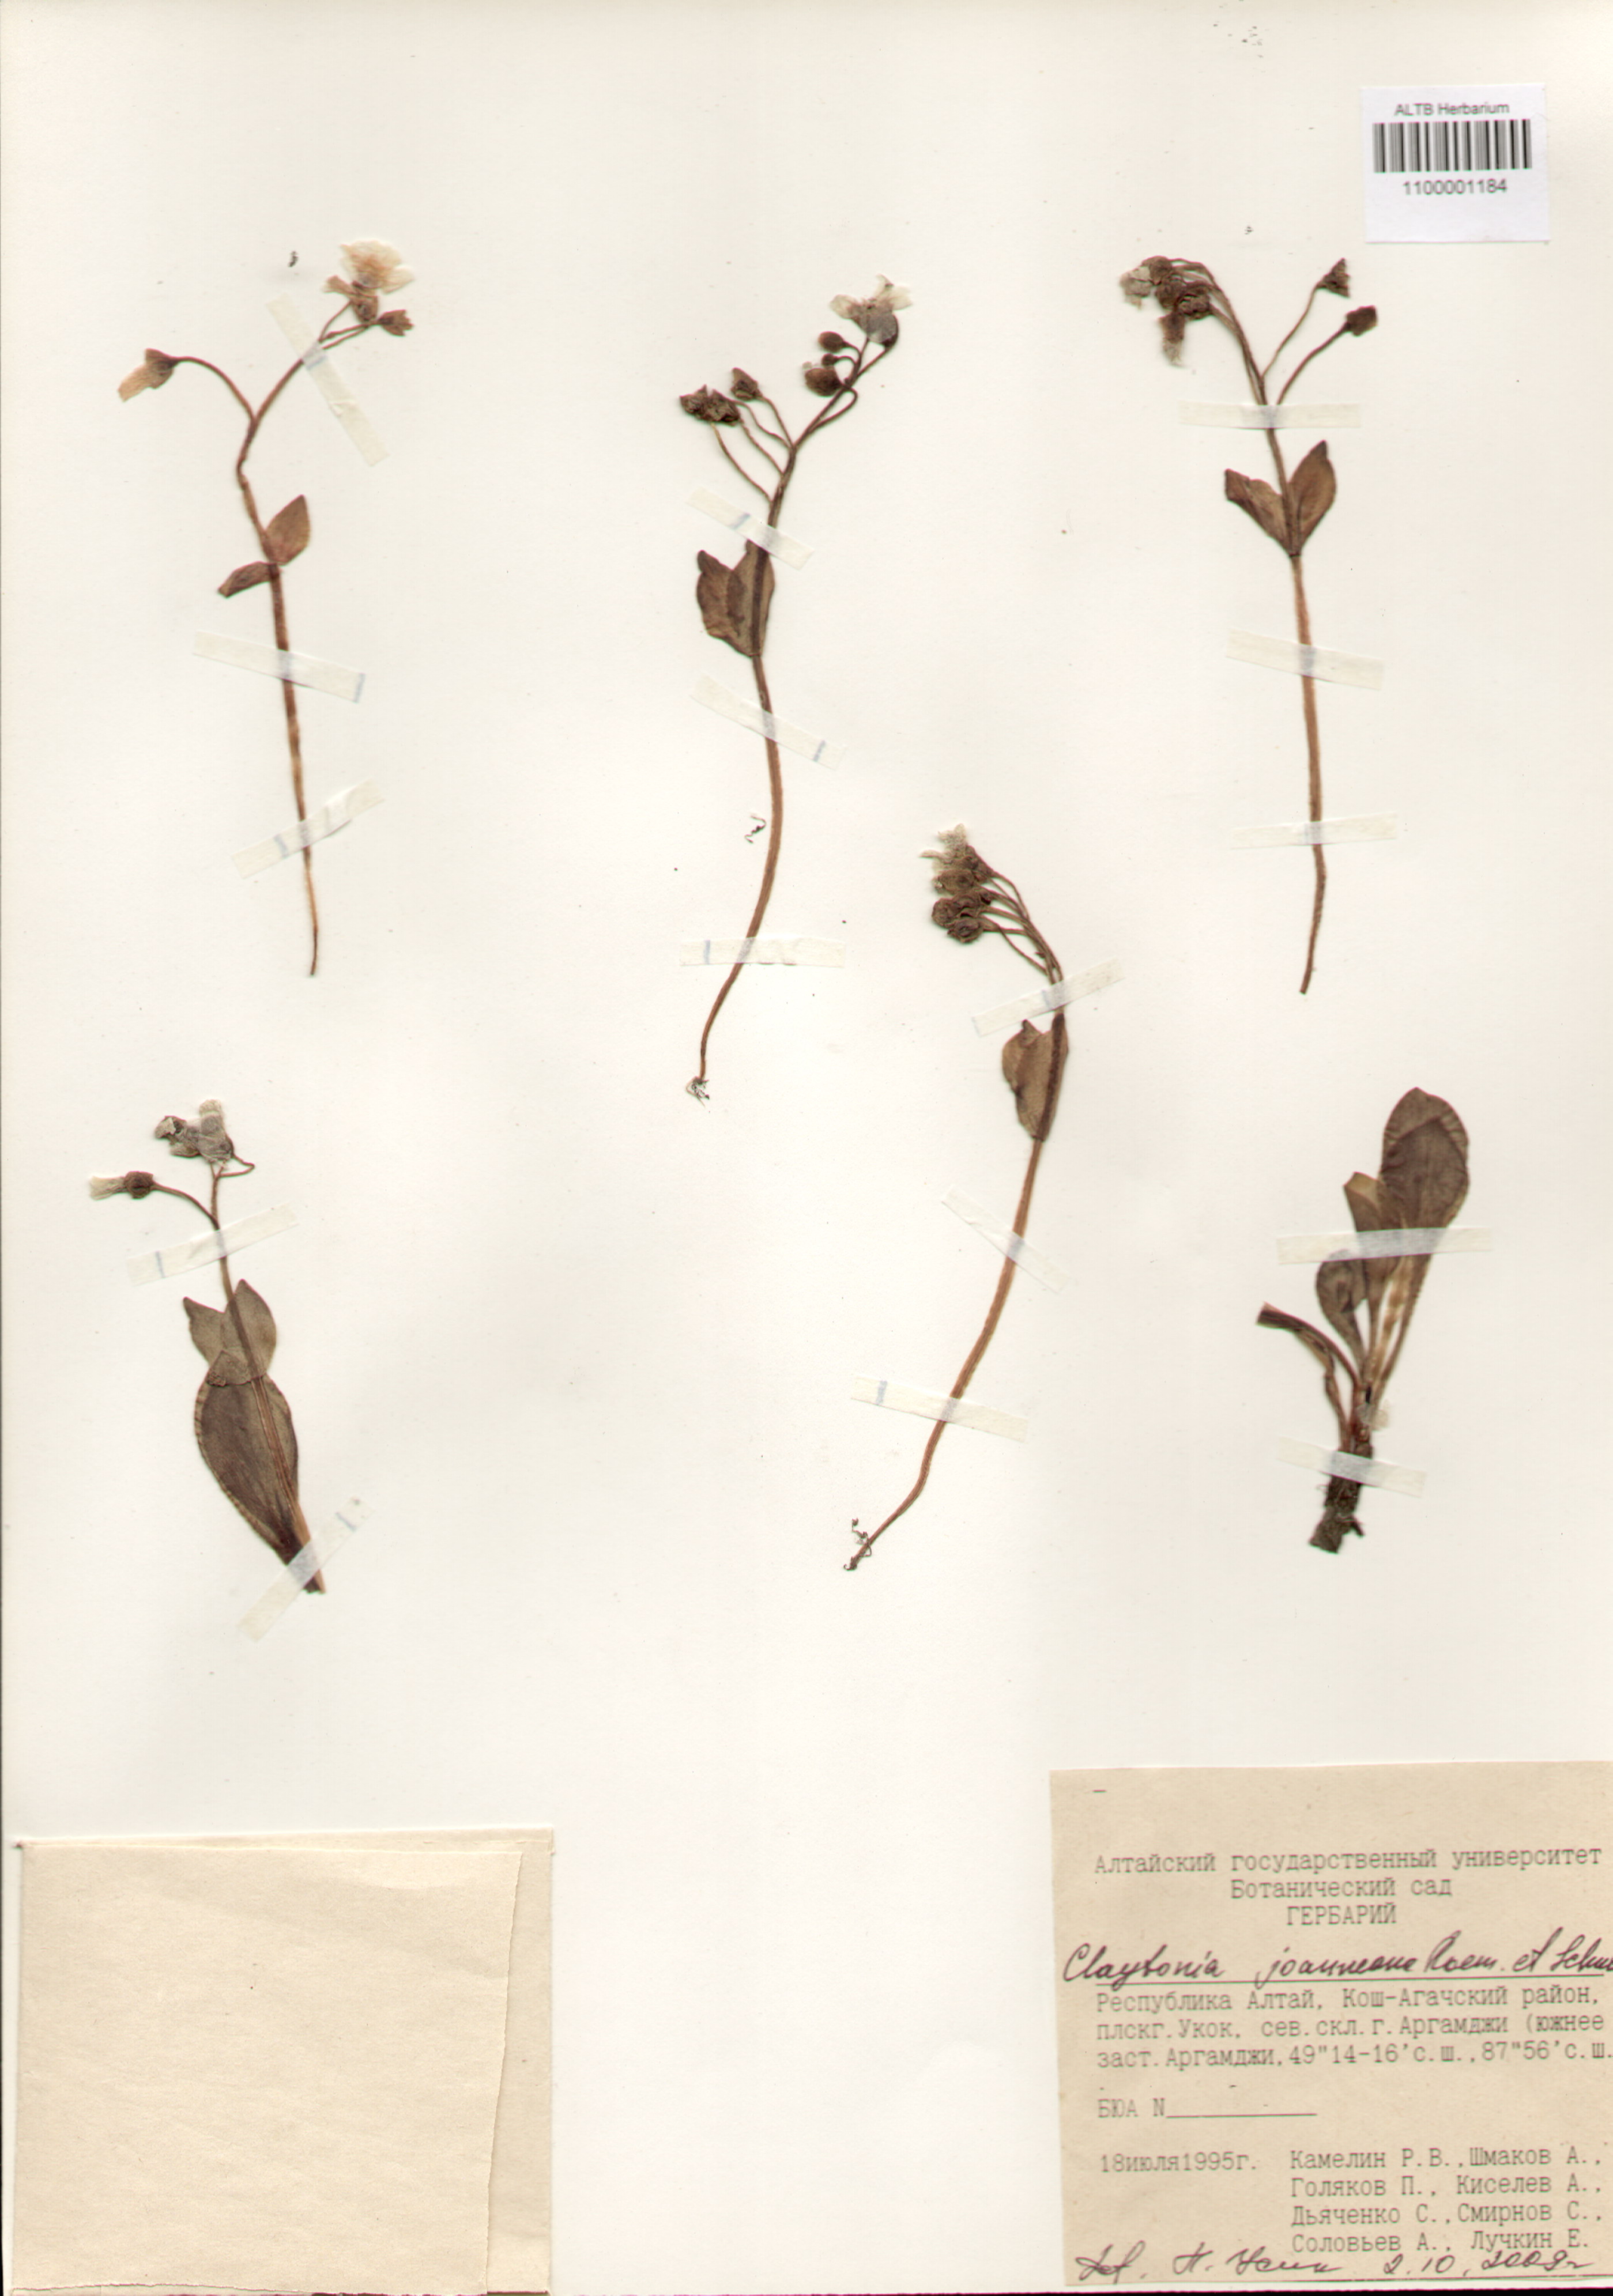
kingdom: Plantae
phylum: Tracheophyta
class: Magnoliopsida
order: Caryophyllales
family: Montiaceae
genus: Claytonia
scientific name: Claytonia joanneana
